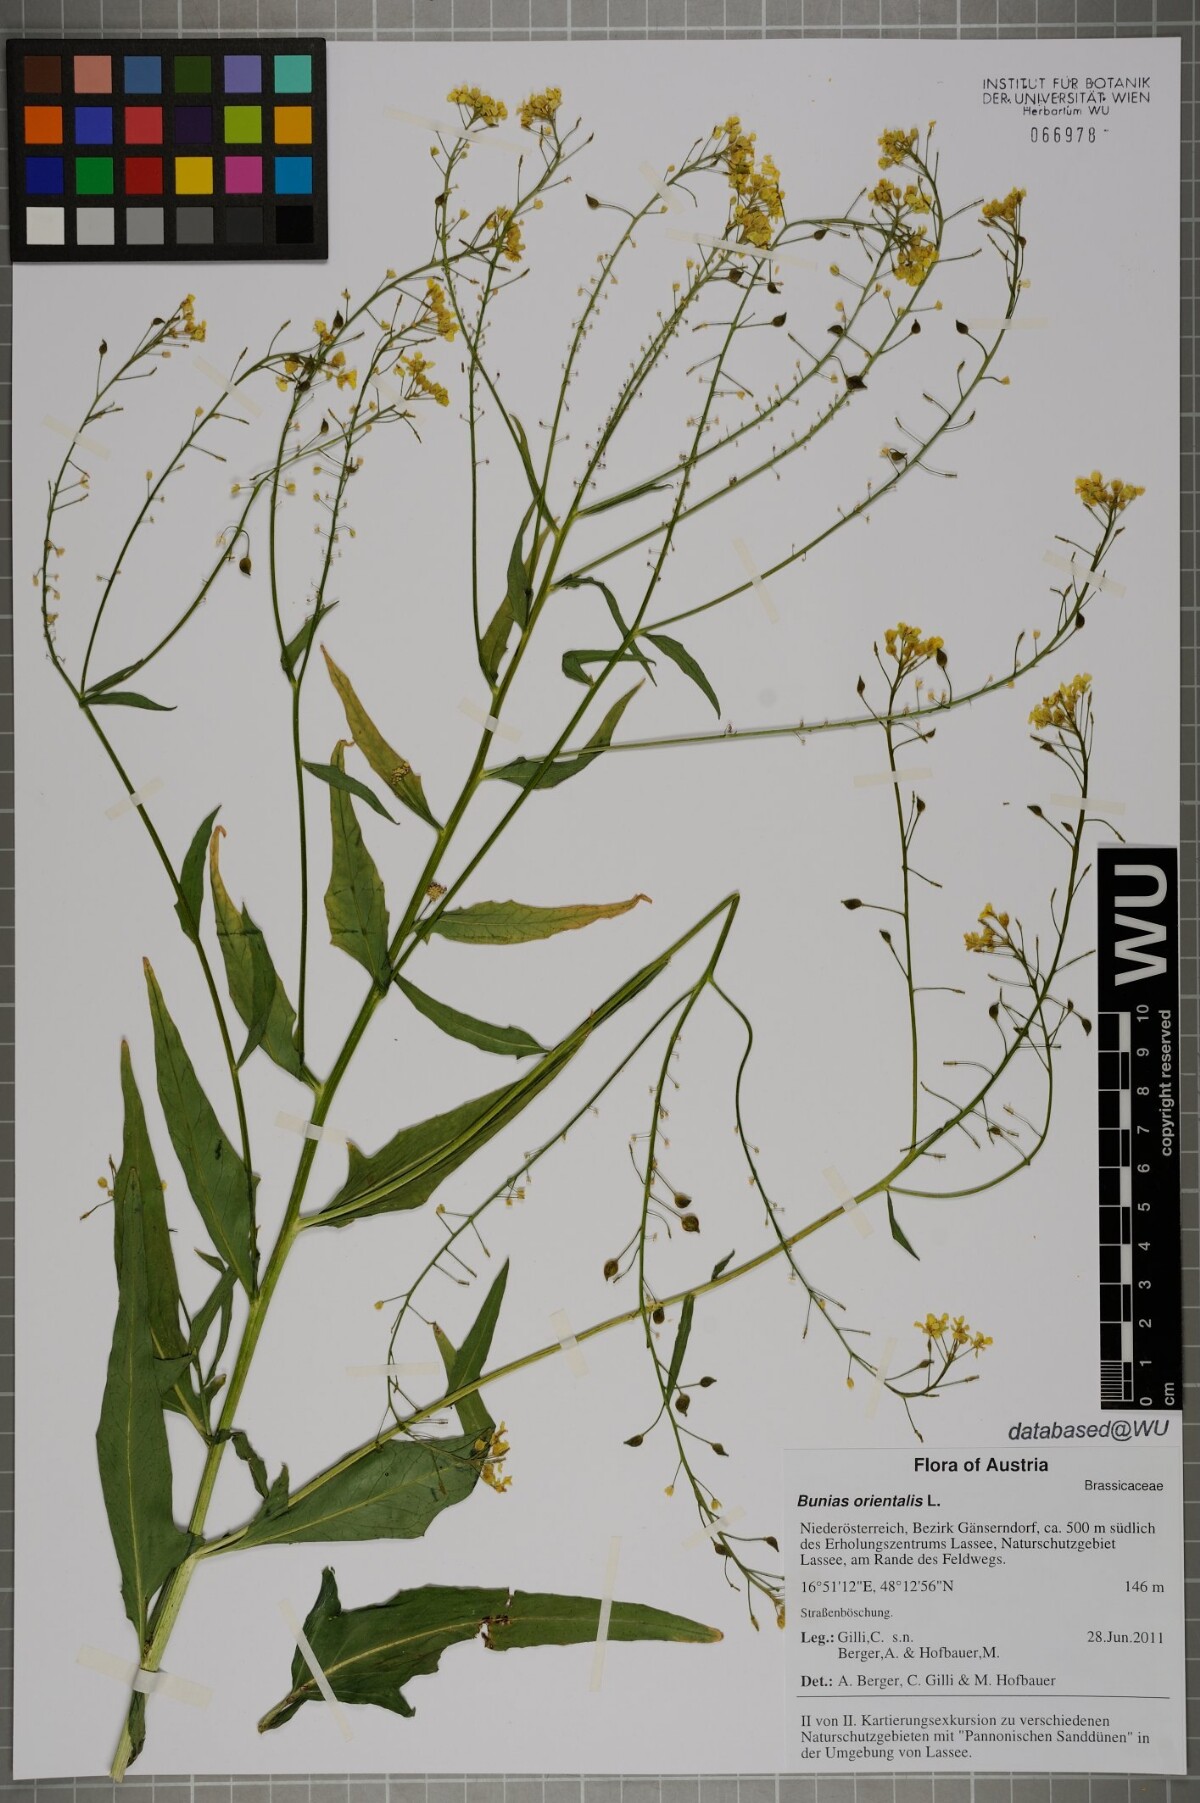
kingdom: Plantae
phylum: Tracheophyta
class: Magnoliopsida
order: Brassicales
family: Brassicaceae
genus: Bunias
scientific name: Bunias orientalis
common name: Warty-cabbage
